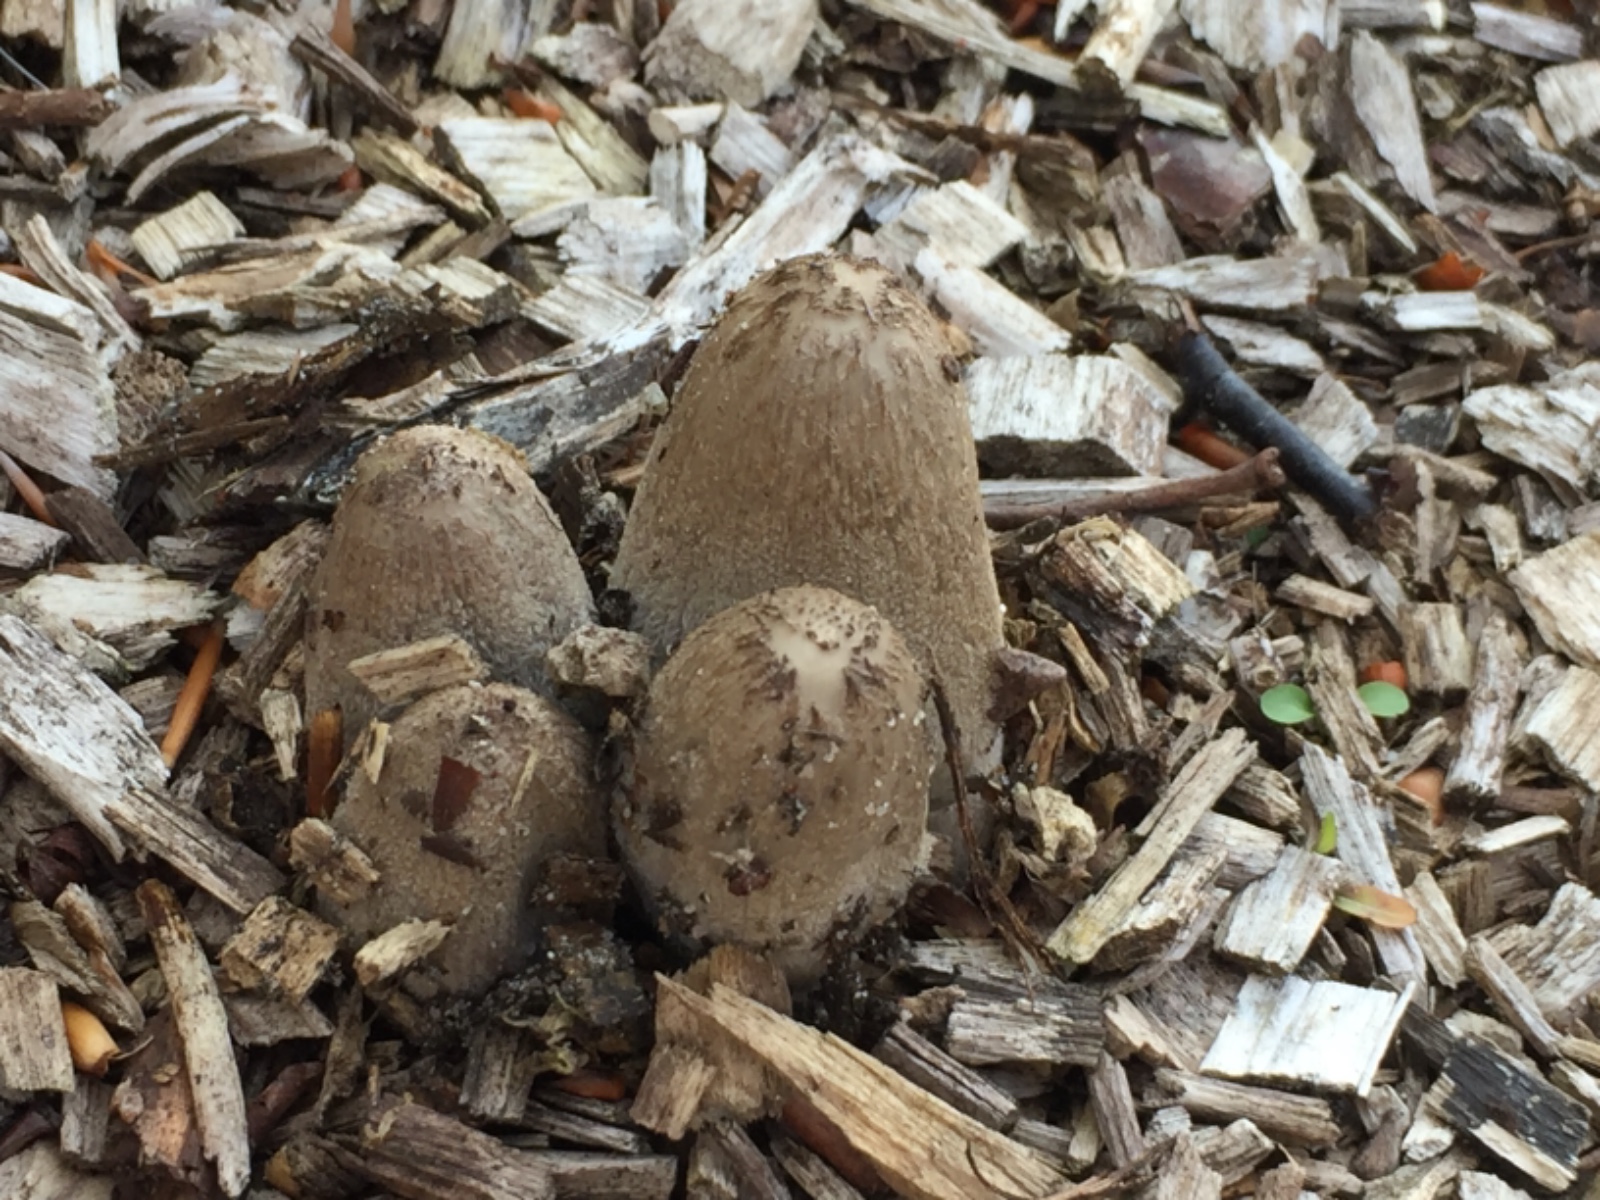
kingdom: Fungi
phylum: Basidiomycota
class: Agaricomycetes
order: Agaricales
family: Psathyrellaceae
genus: Coprinopsis
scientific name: Coprinopsis lagopus
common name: dunstokket blækhat
